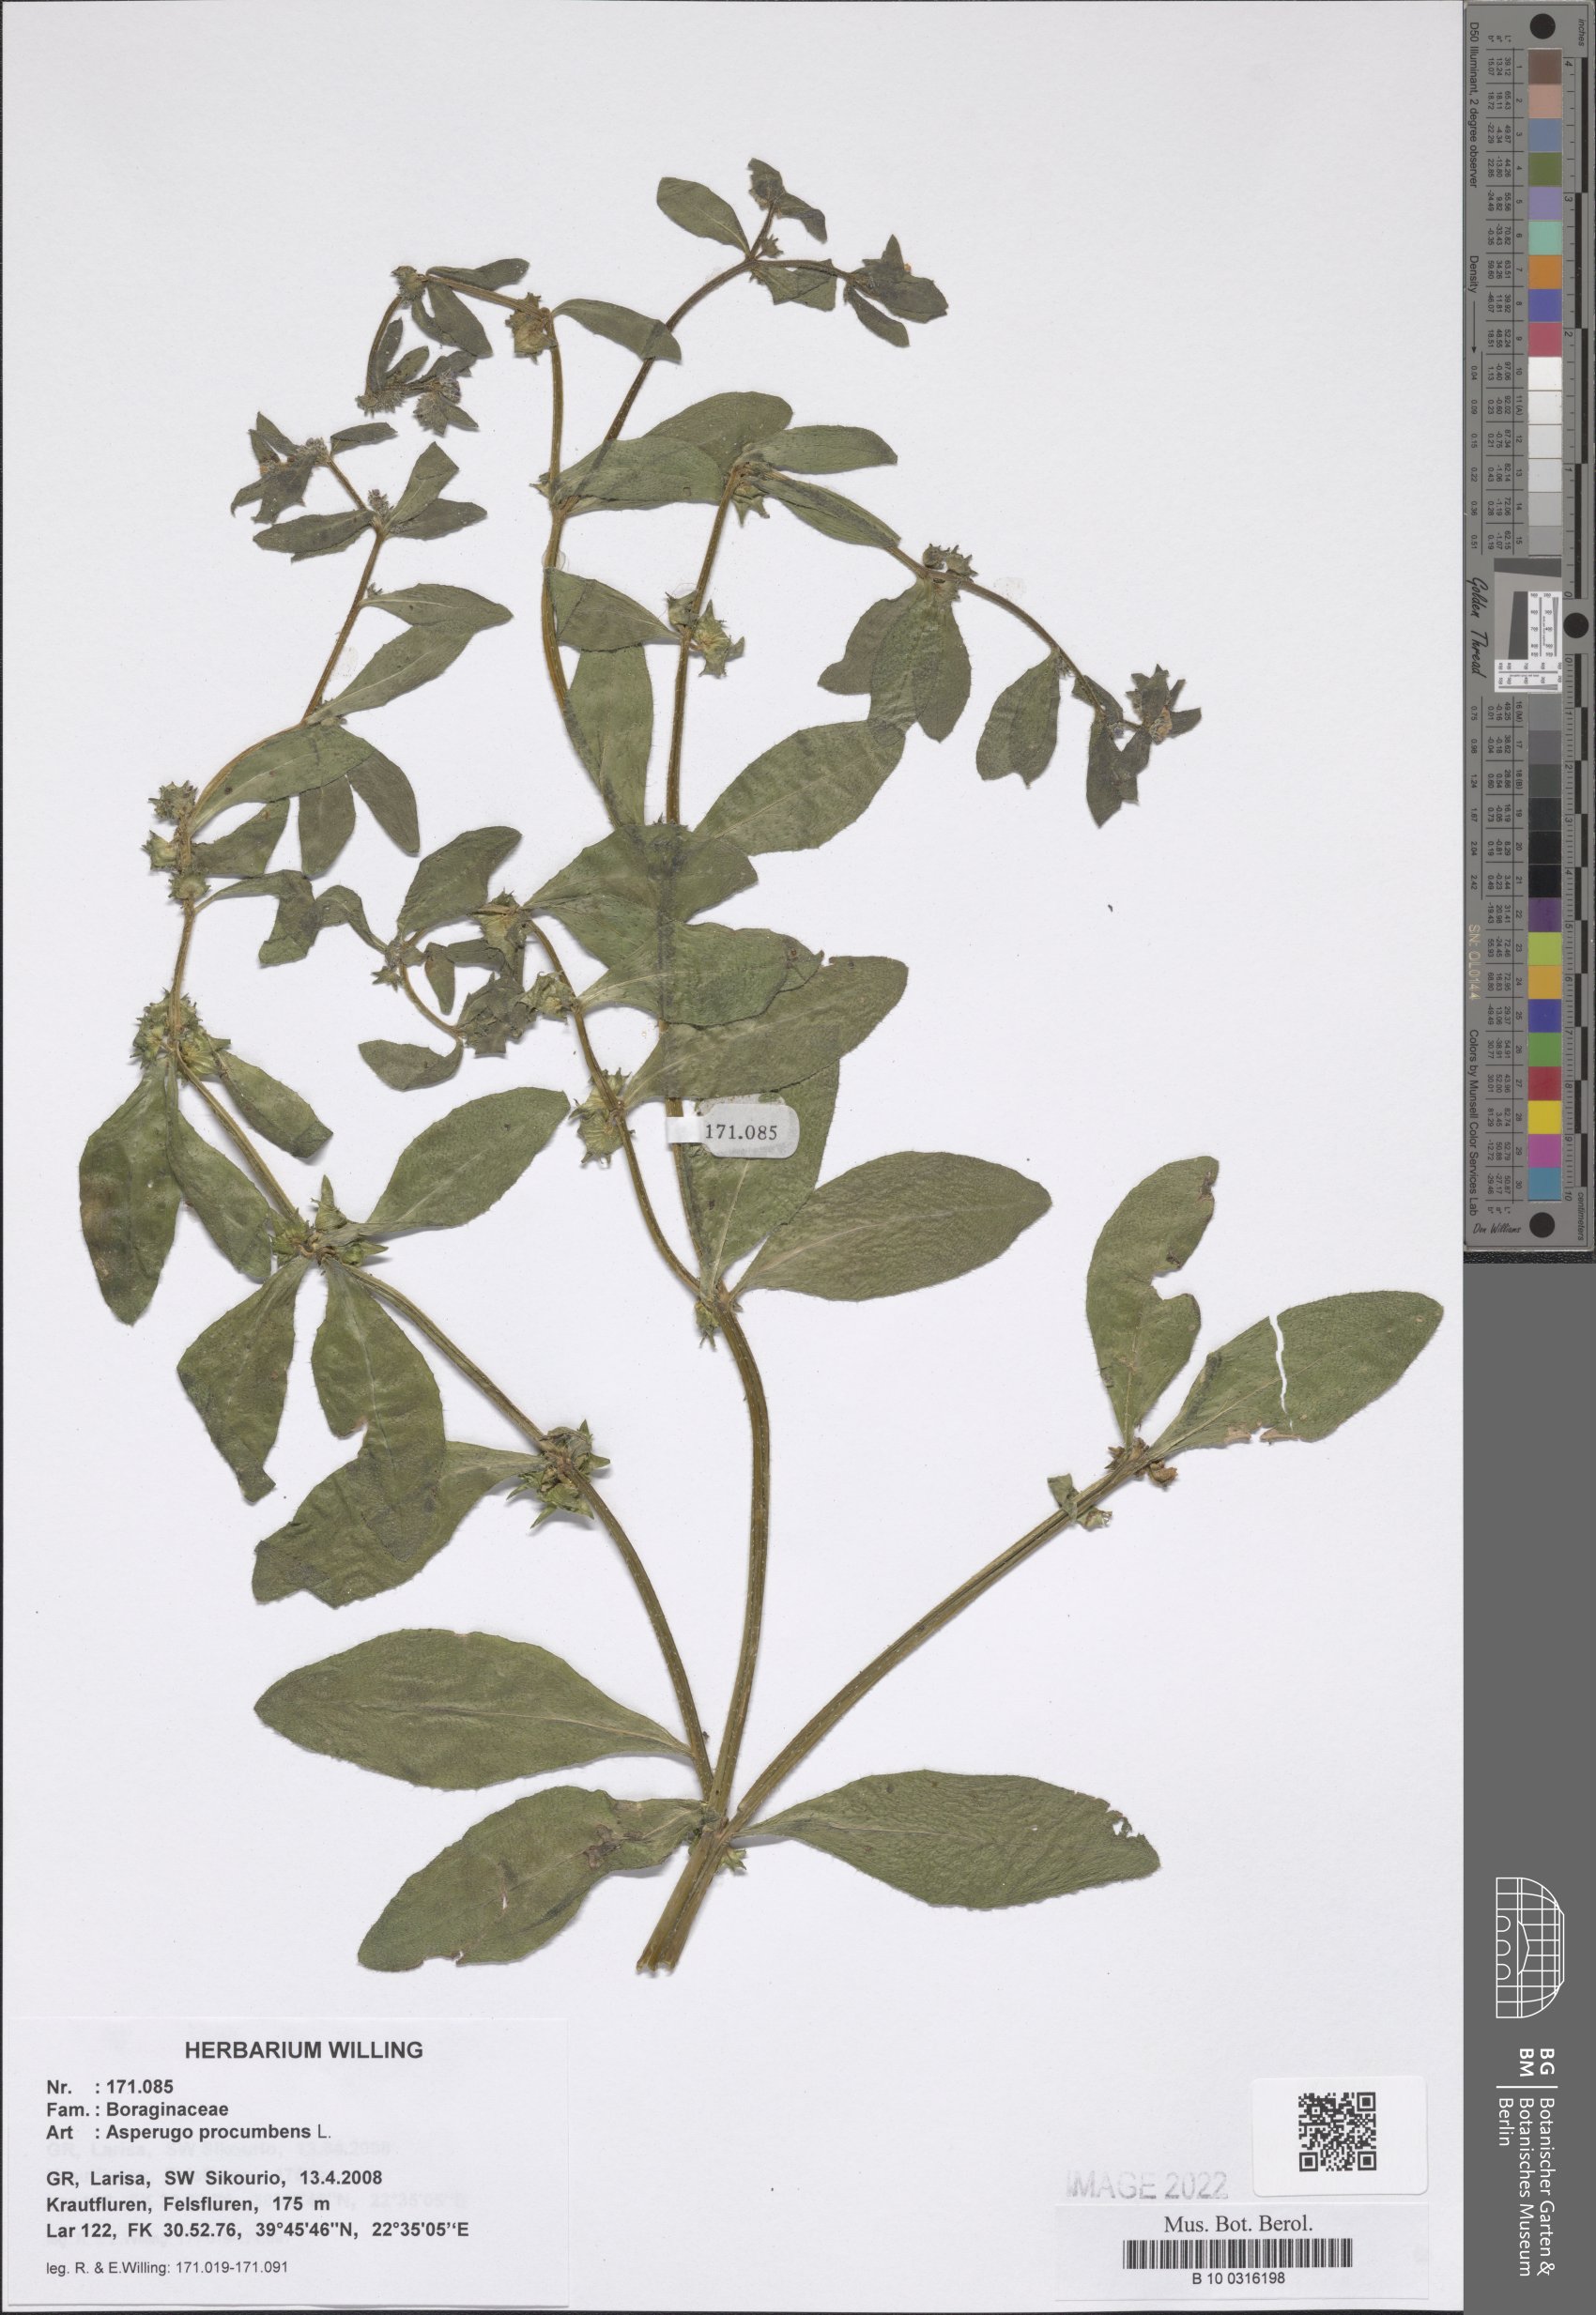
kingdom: Plantae
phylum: Tracheophyta
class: Magnoliopsida
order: Boraginales
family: Boraginaceae
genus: Asperugo
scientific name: Asperugo procumbens
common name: Madwort
